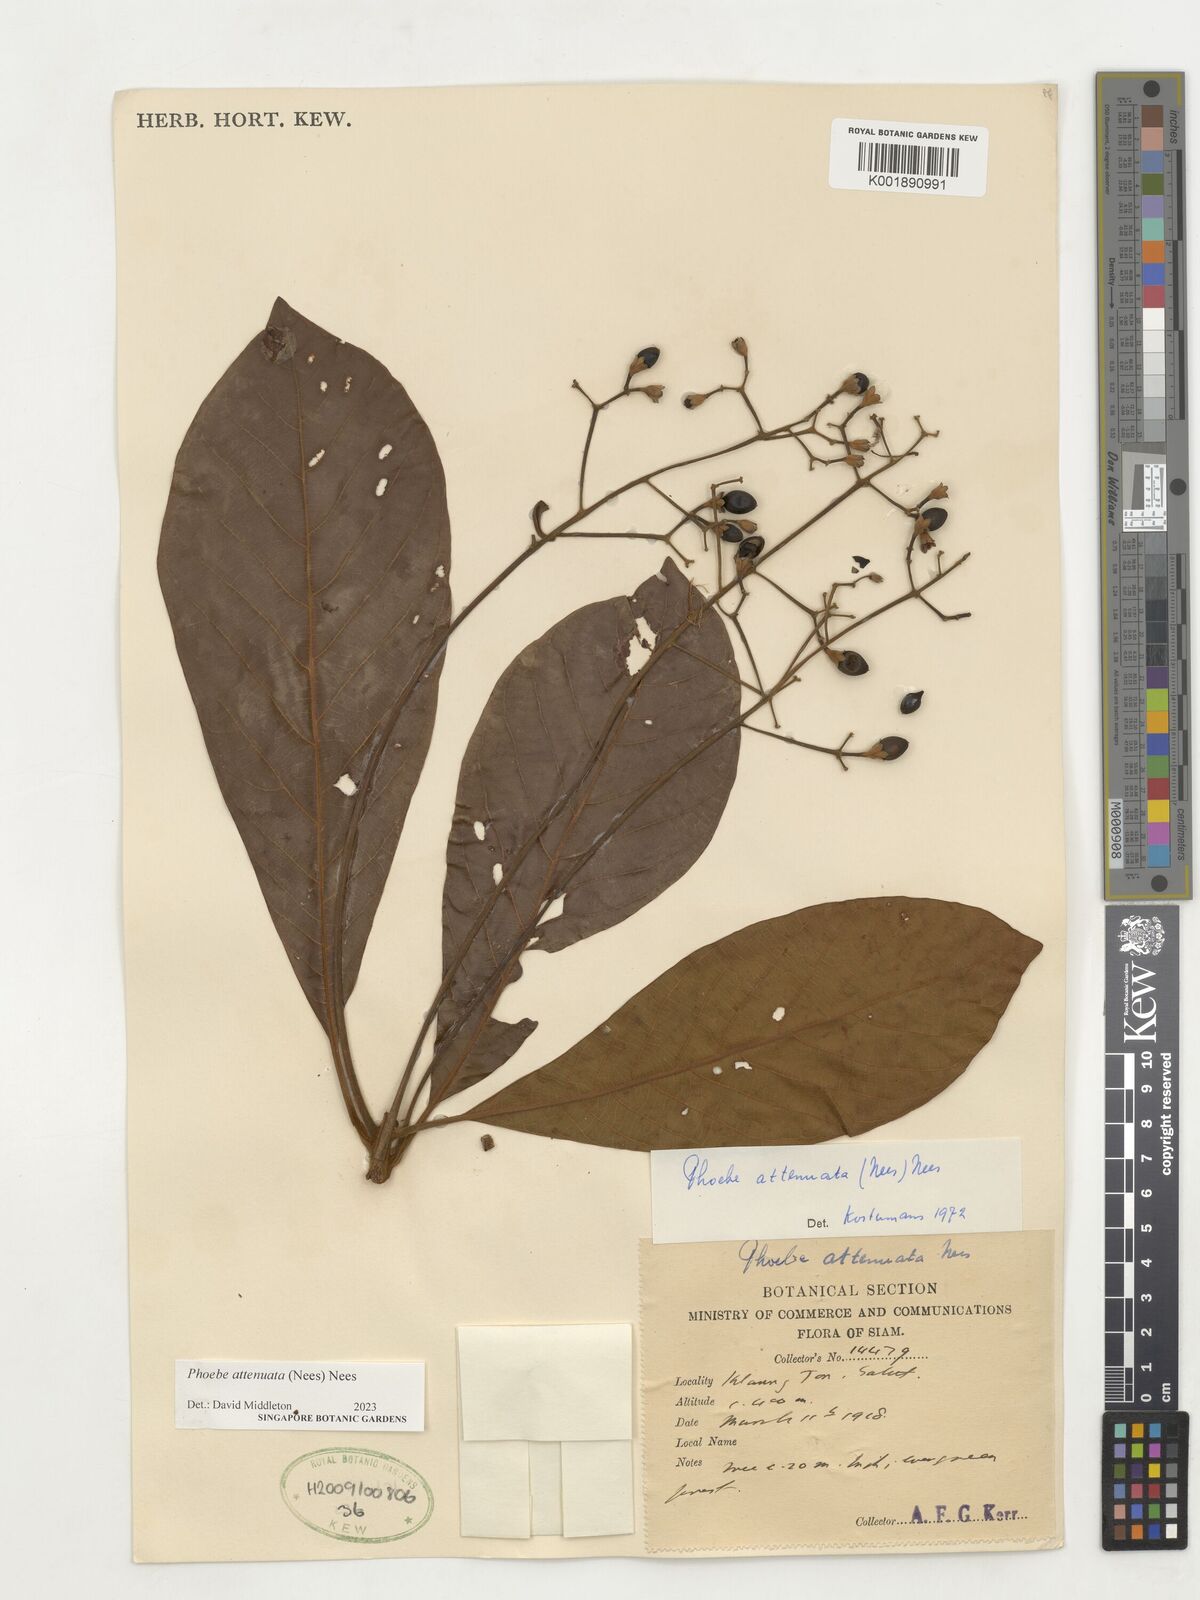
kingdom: Plantae
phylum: Tracheophyta
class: Magnoliopsida
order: Laurales
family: Lauraceae
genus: Phoebe
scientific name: Phoebe attenuata
